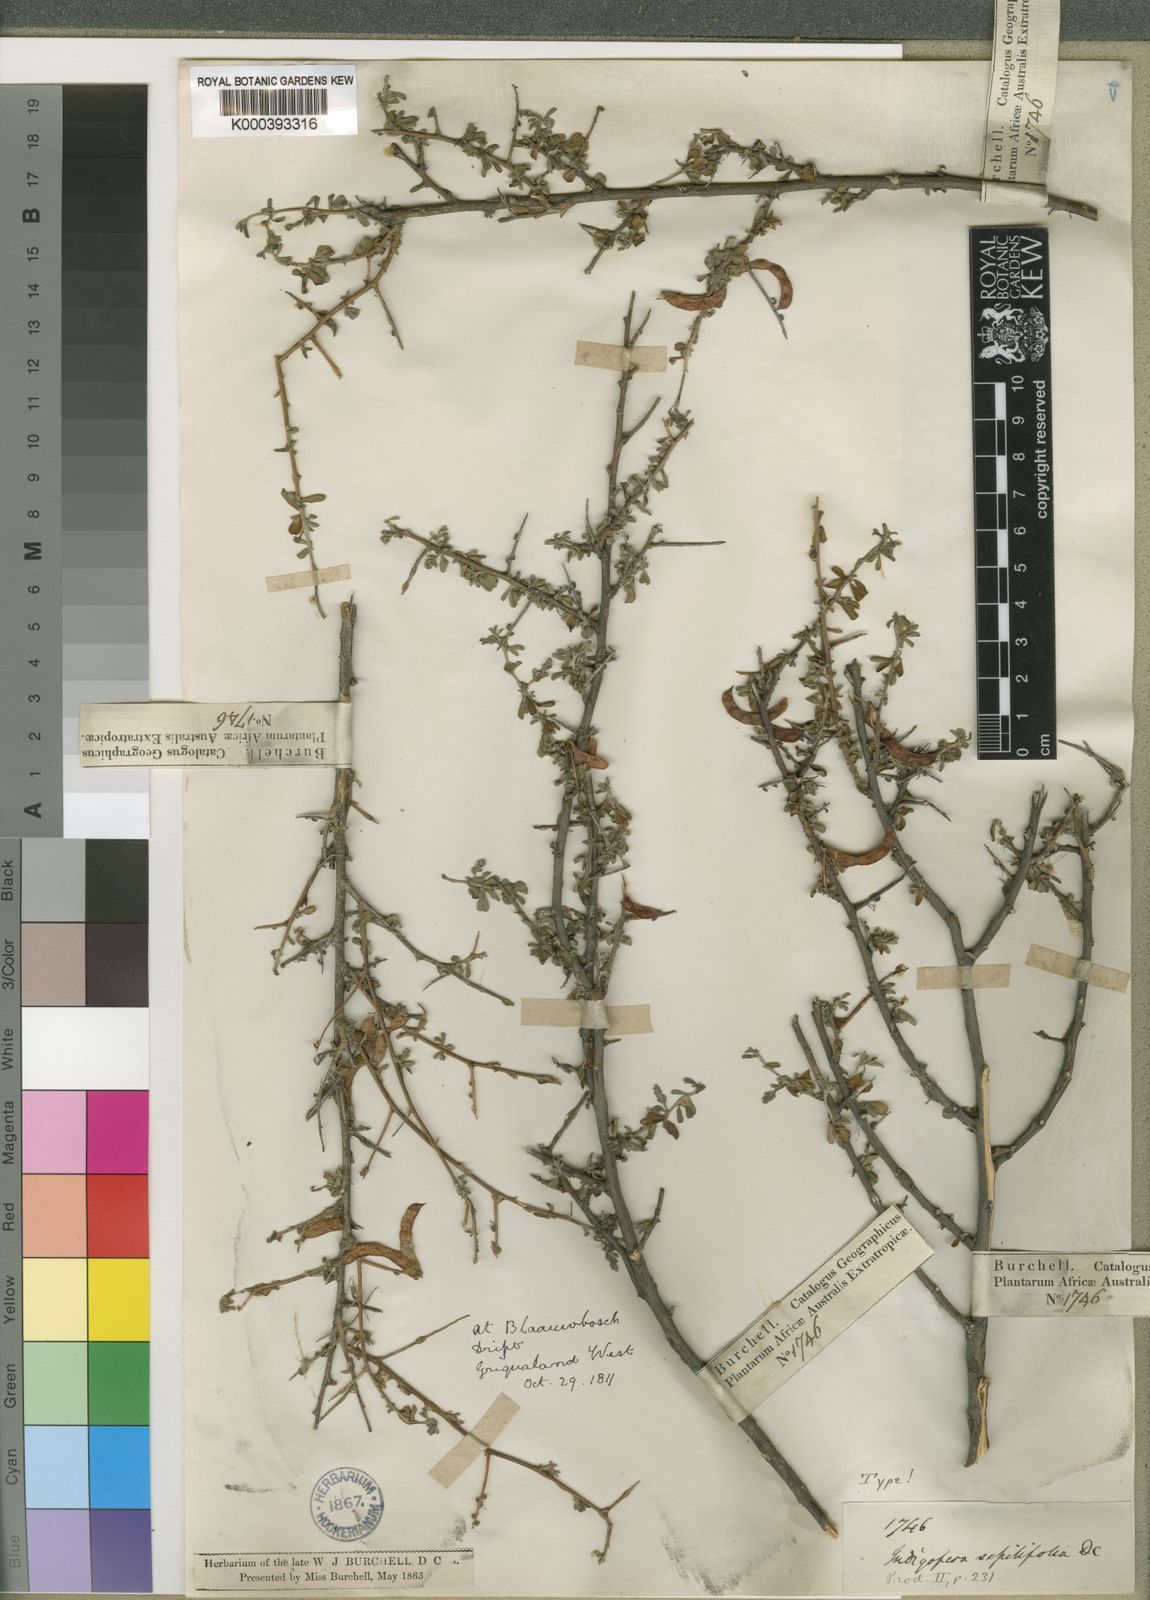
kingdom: Plantae
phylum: Tracheophyta
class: Magnoliopsida
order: Fabales
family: Fabaceae
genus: Indigofera
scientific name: Indigofera sessilifolia
